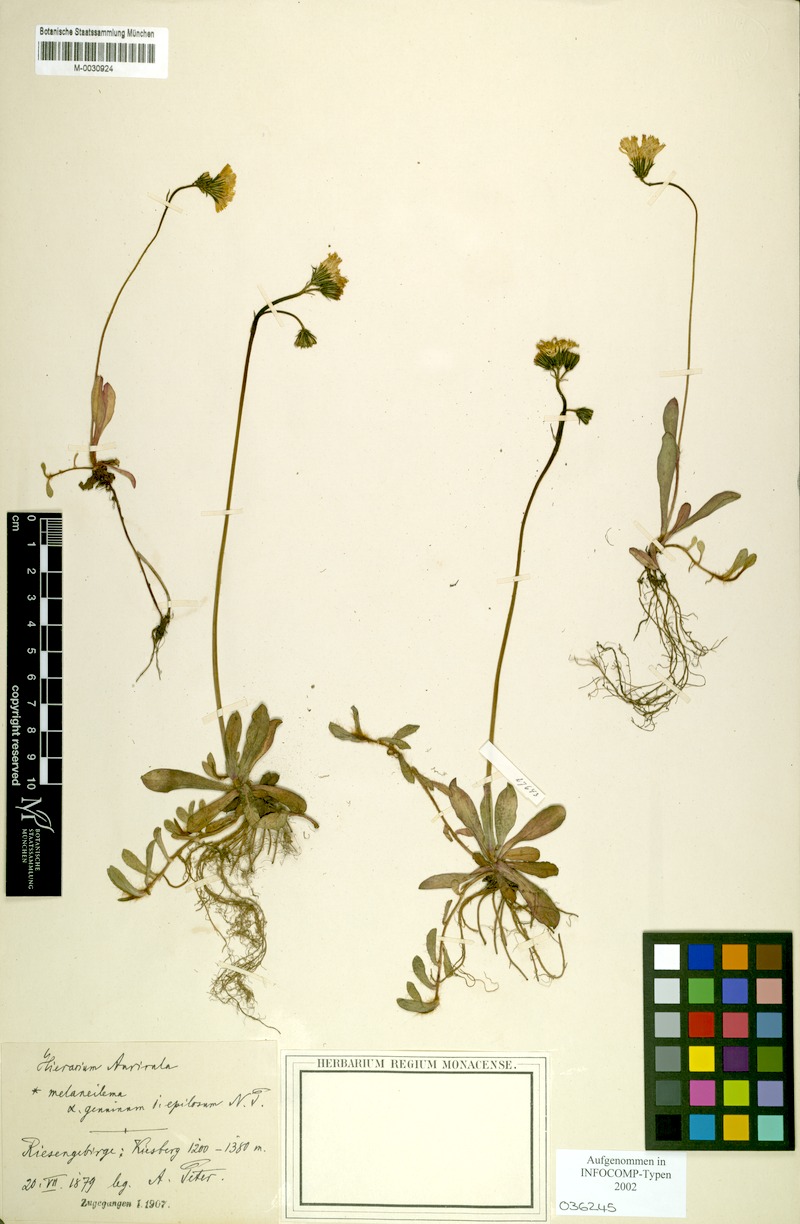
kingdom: Plantae
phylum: Tracheophyta
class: Magnoliopsida
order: Asterales
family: Asteraceae
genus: Pilosella
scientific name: Pilosella lactucella
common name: Glaucous fox-and-cubs
